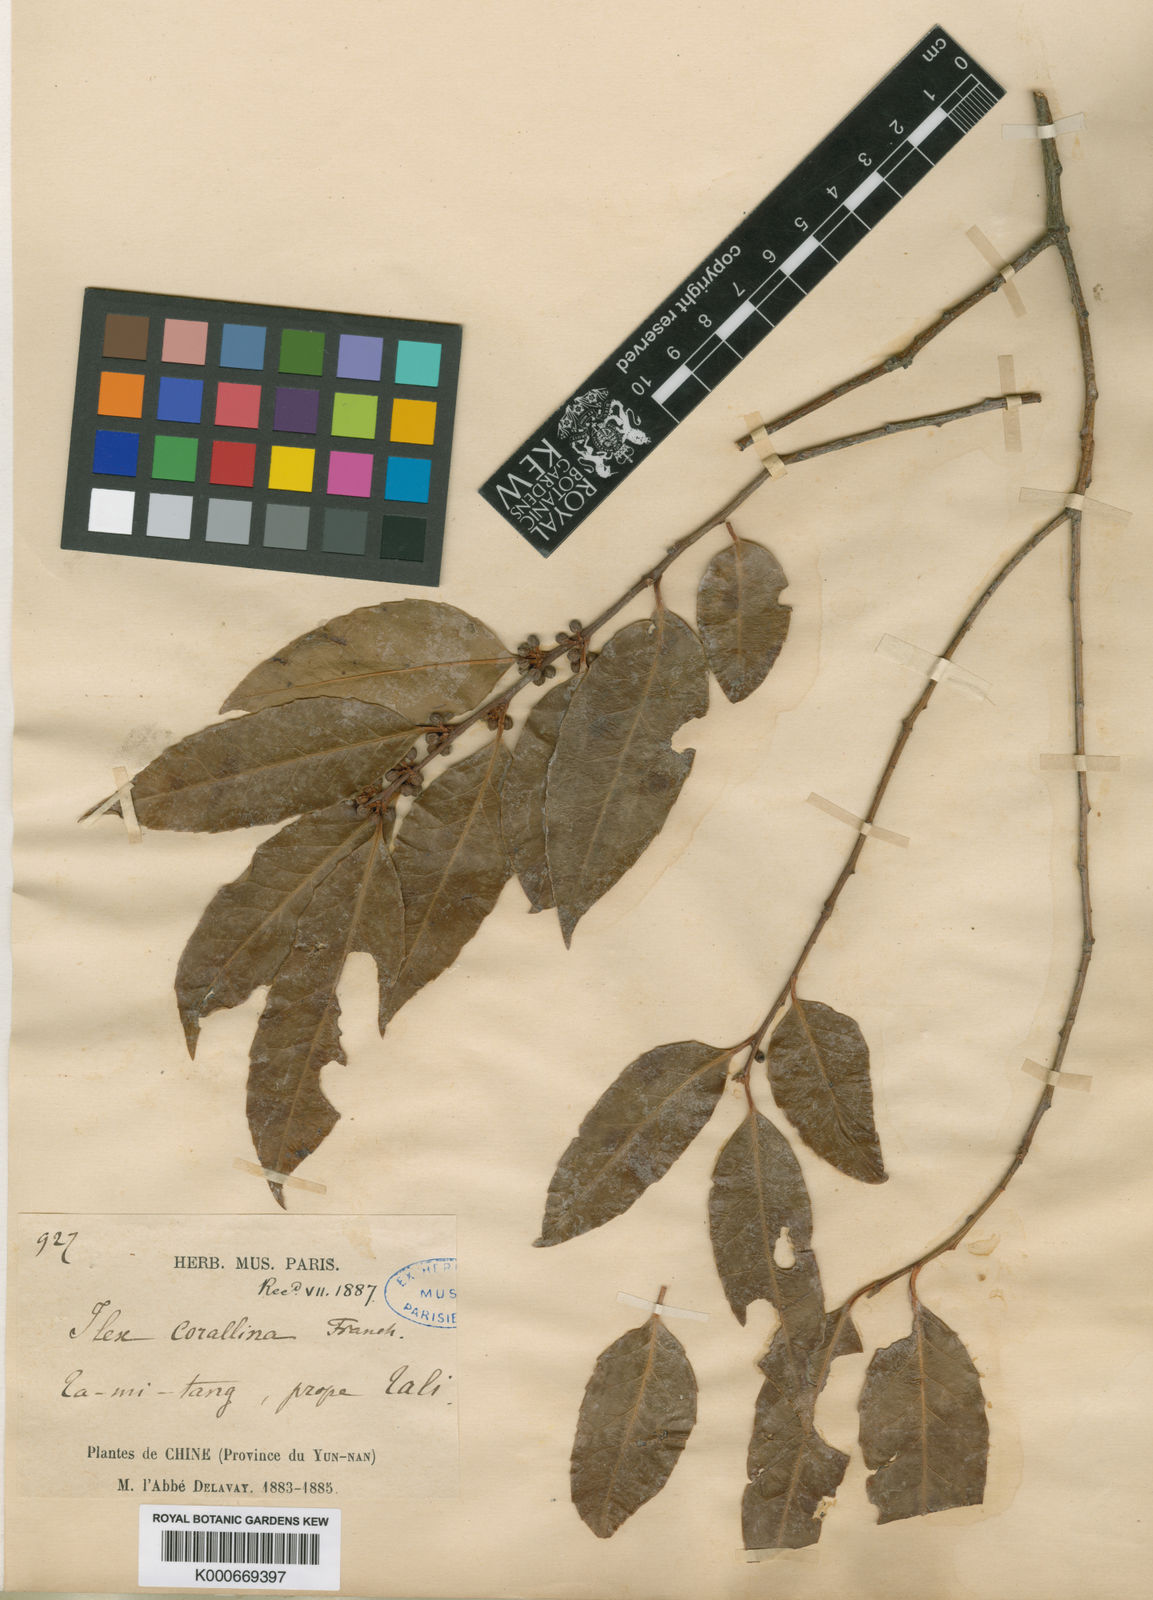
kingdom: Plantae
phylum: Tracheophyta
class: Magnoliopsida
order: Aquifoliales
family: Aquifoliaceae
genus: Ilex
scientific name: Ilex corallina
